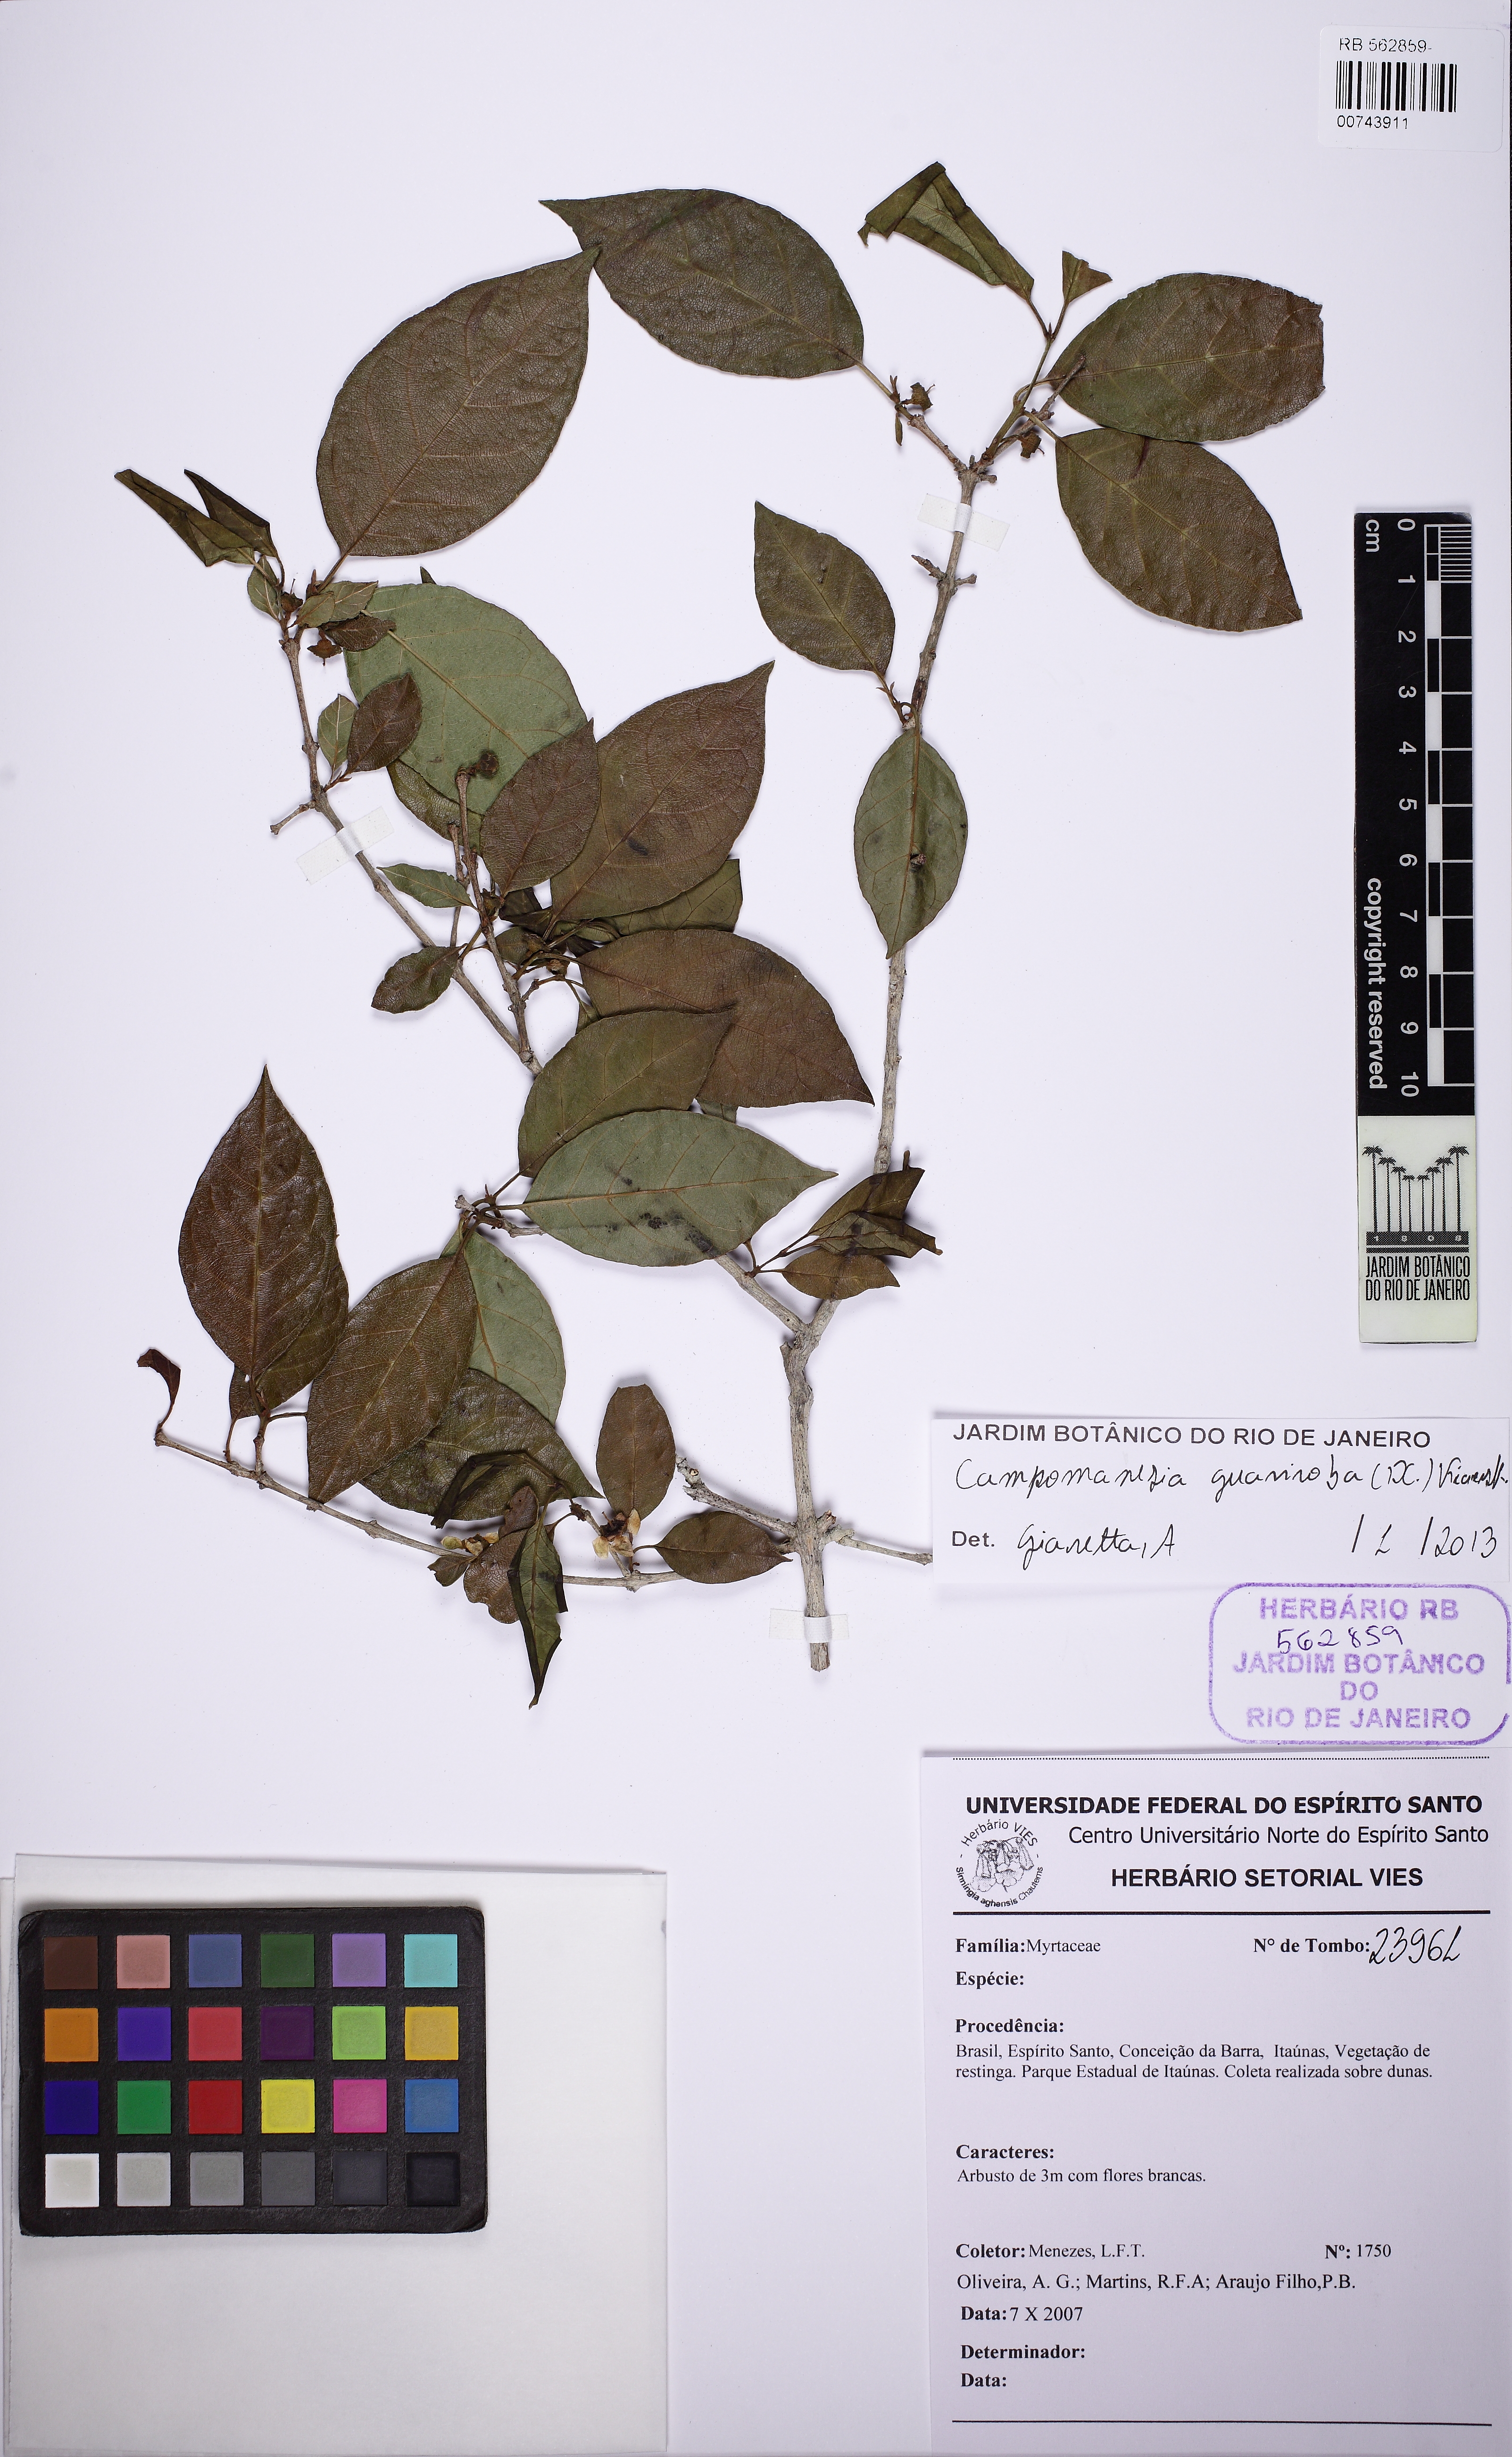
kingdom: Plantae
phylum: Tracheophyta
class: Magnoliopsida
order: Myrtales
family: Myrtaceae
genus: Campomanesia
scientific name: Campomanesia guaviroba
